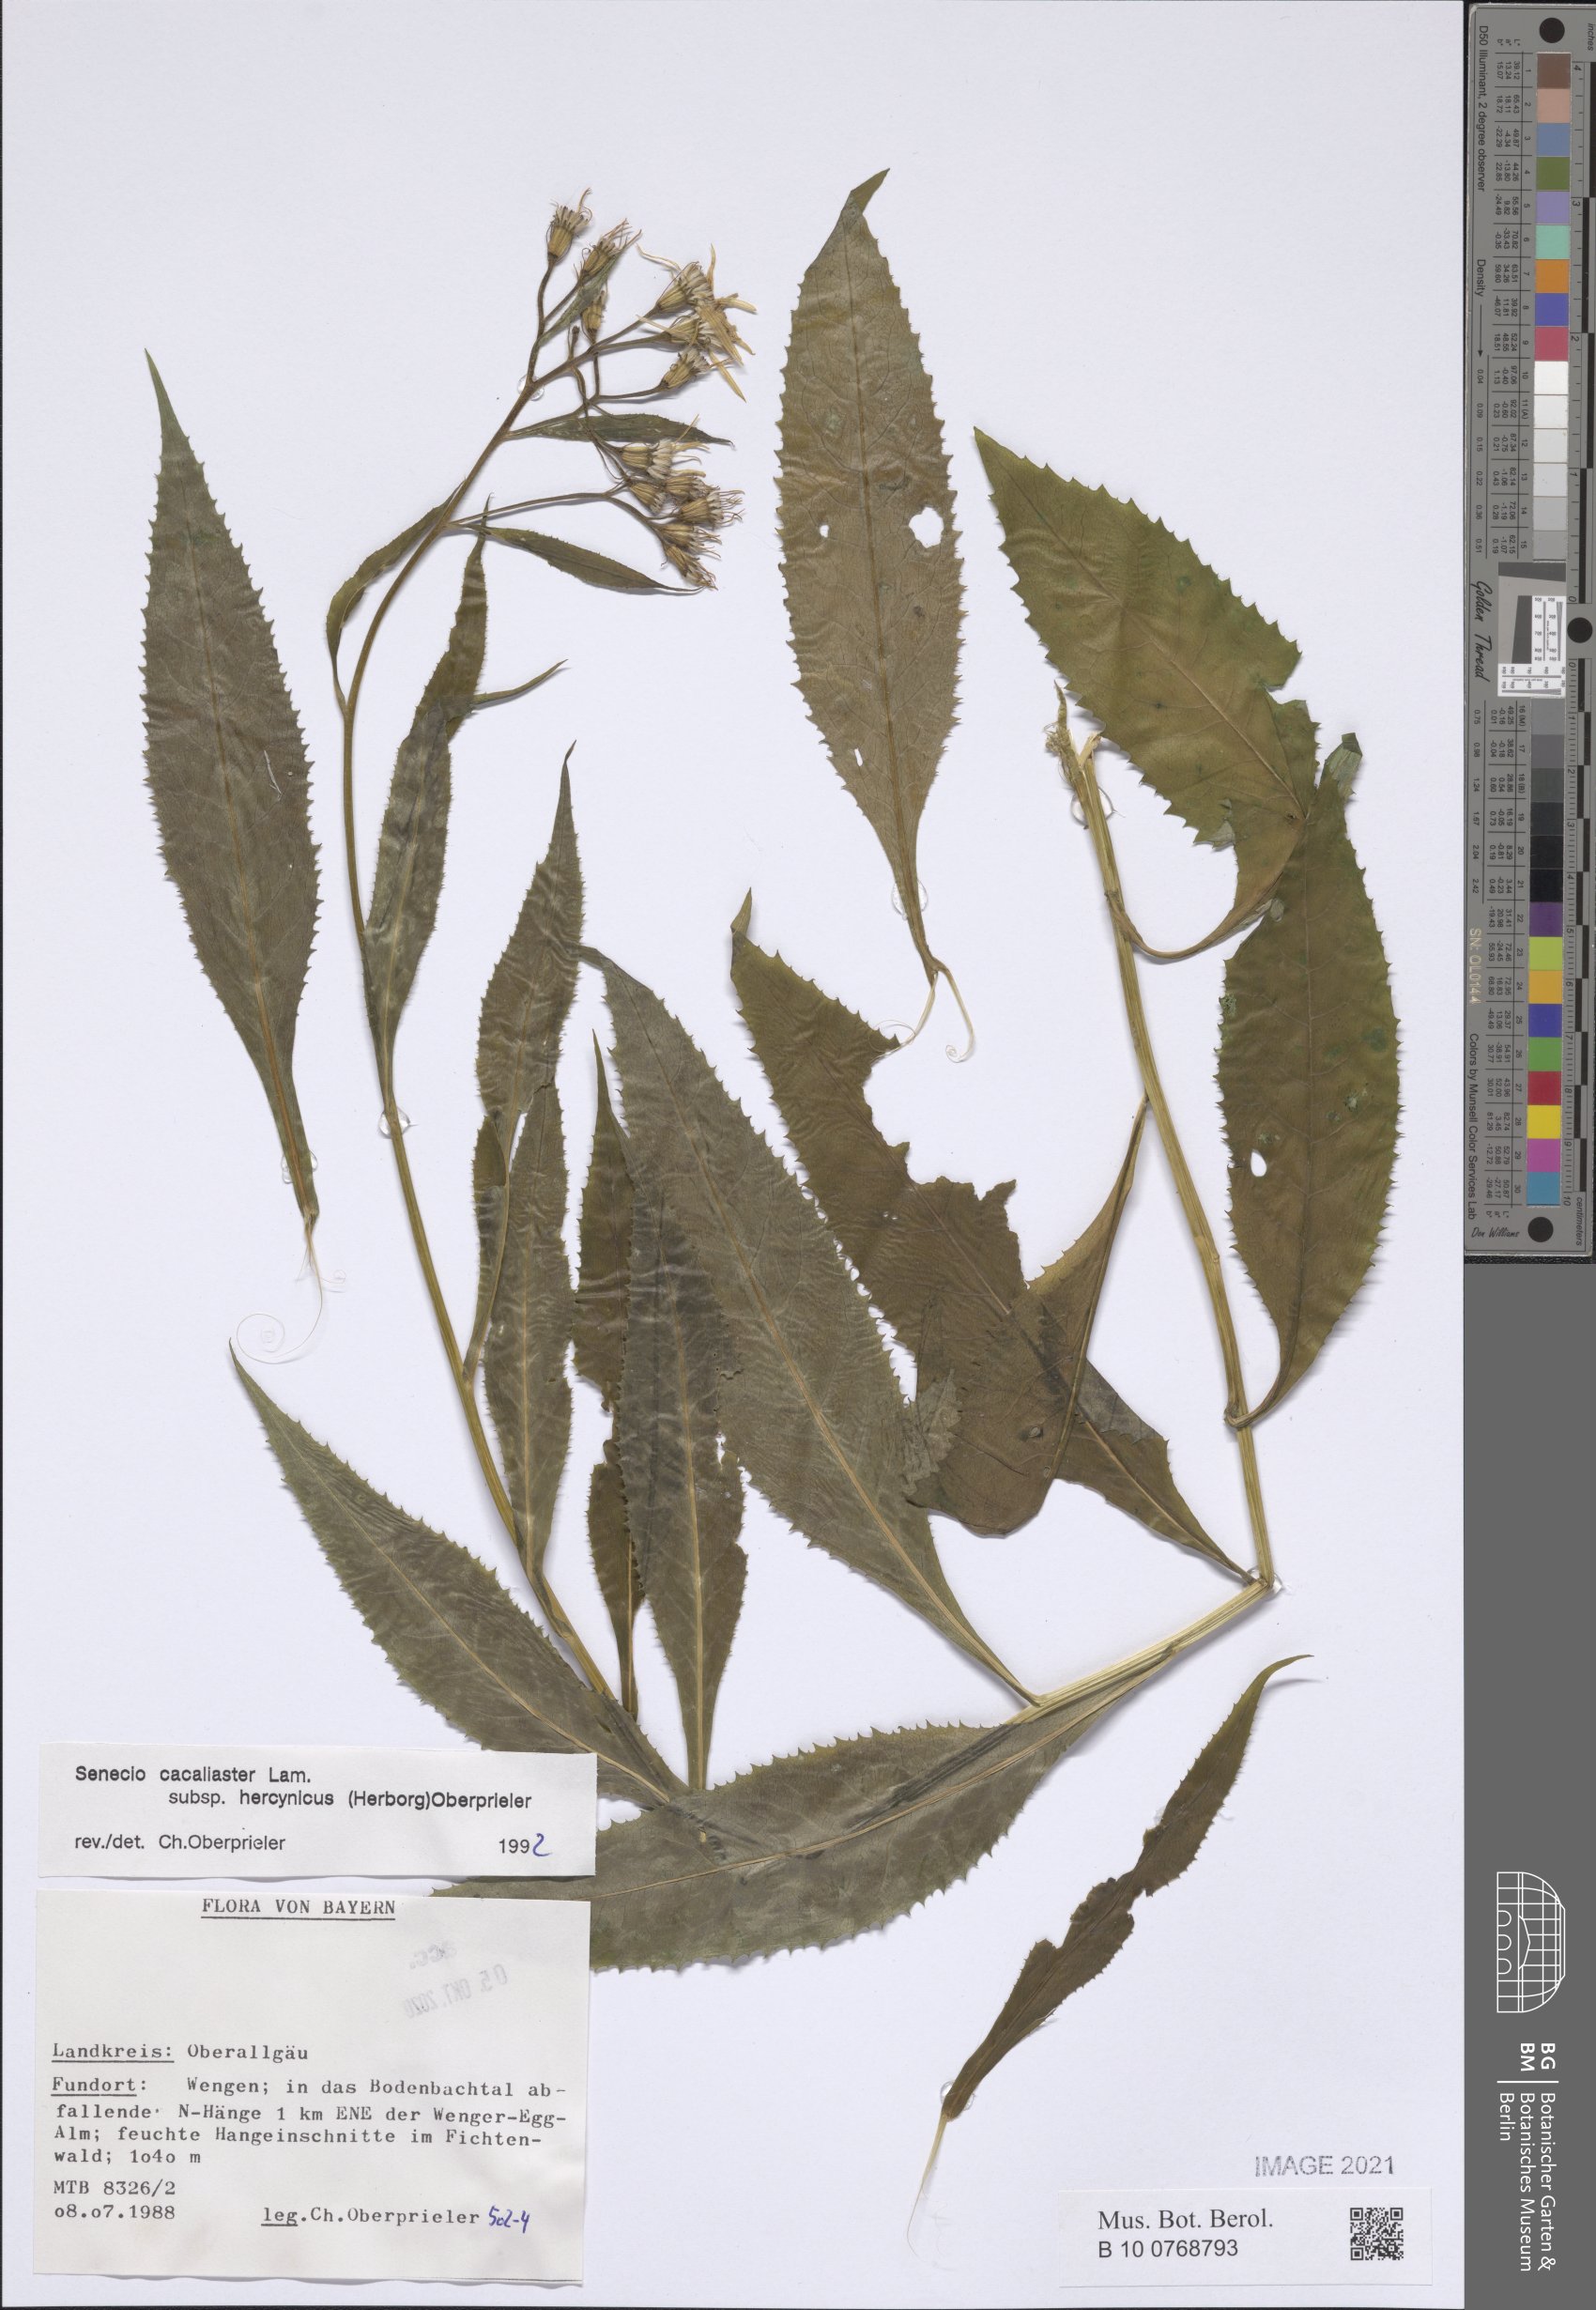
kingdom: Plantae
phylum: Tracheophyta
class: Magnoliopsida
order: Asterales
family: Asteraceae
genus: Senecio
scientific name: Senecio hercynicus
